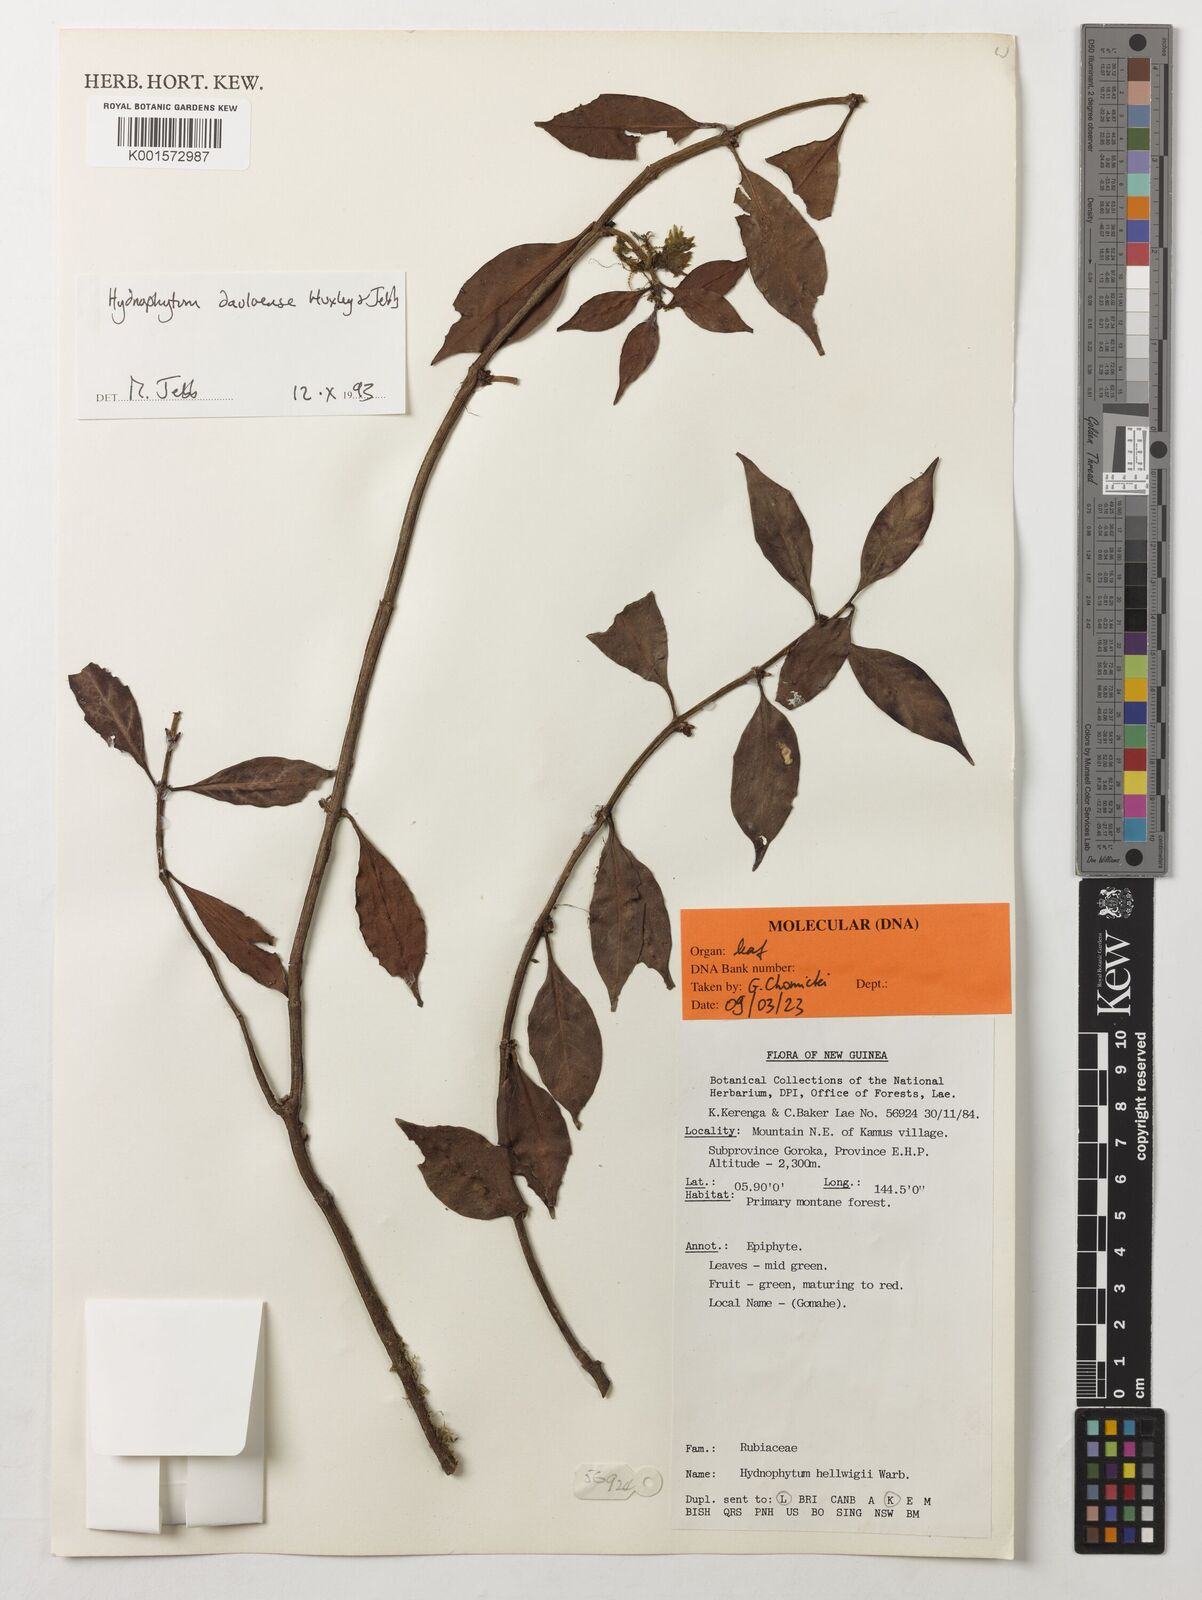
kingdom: Plantae
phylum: Tracheophyta
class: Magnoliopsida
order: Gentianales
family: Rubiaceae
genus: Hydnophytum
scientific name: Hydnophytum dauloense
